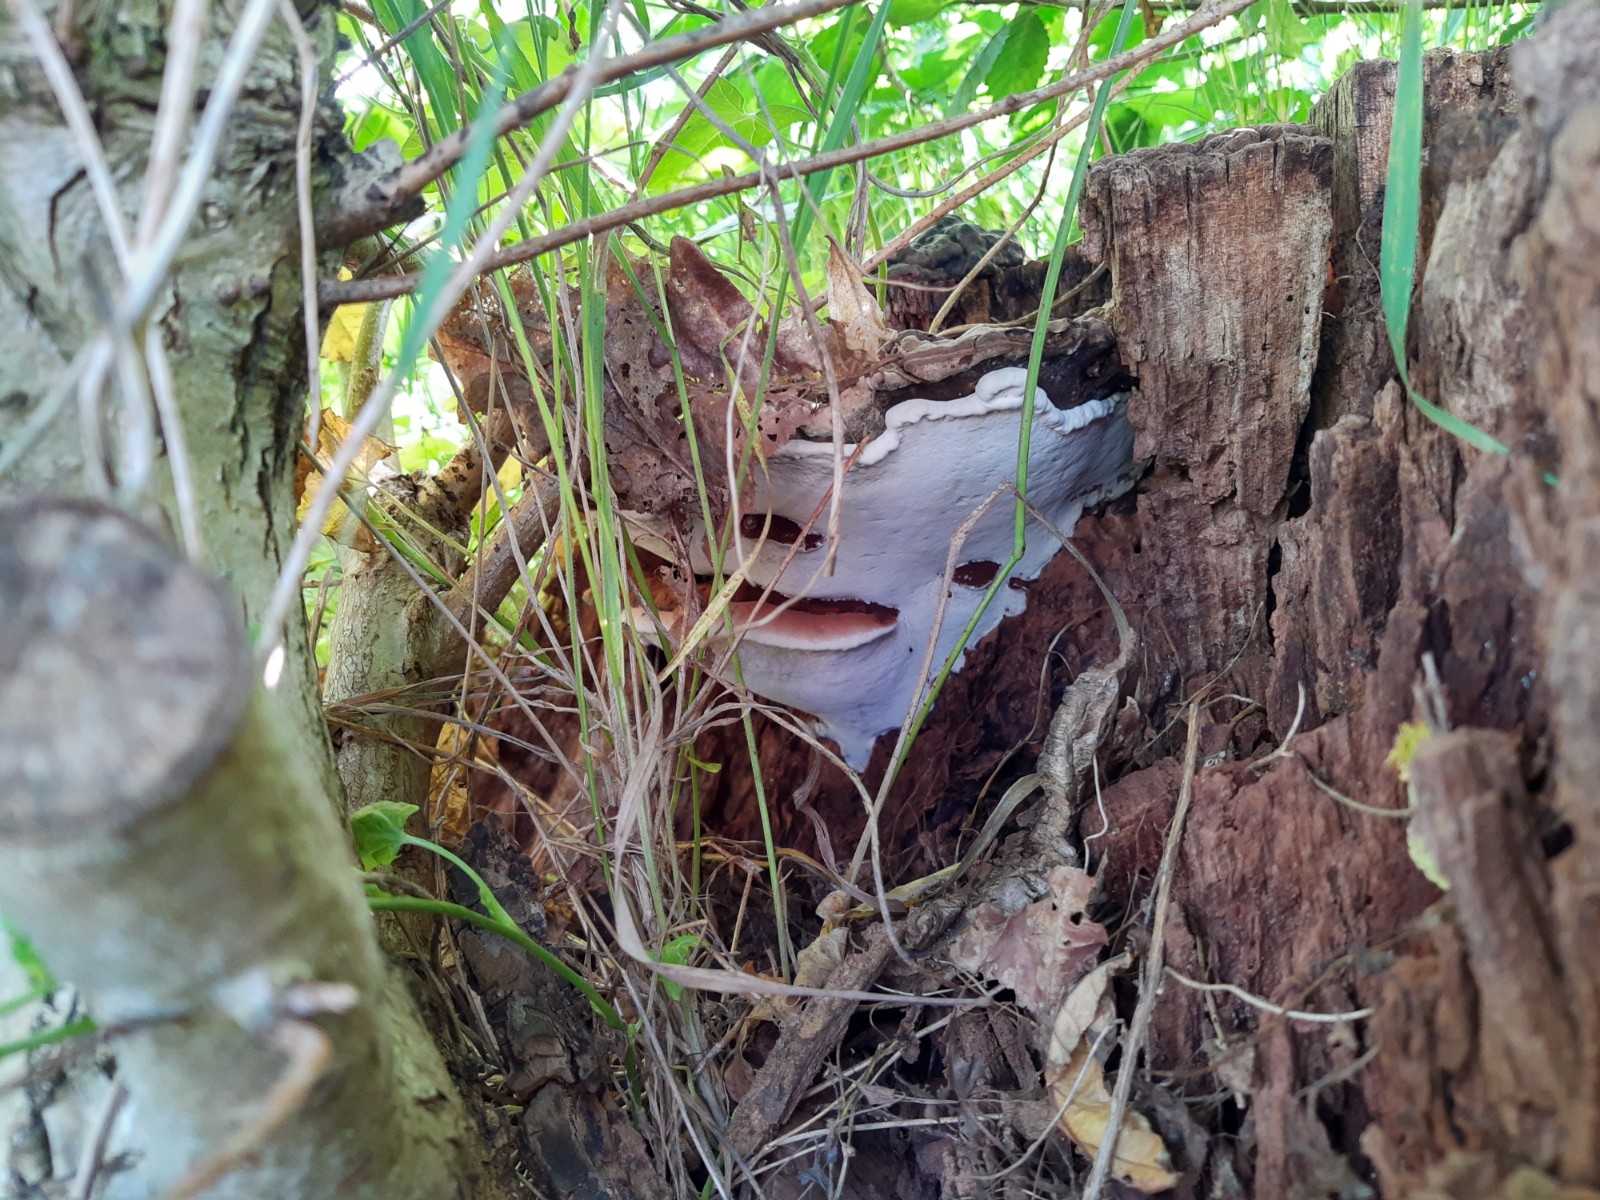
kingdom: Fungi
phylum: Basidiomycota
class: Agaricomycetes
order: Polyporales
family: Polyporaceae
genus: Ganoderma
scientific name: Ganoderma applanatum
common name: flad lakporesvamp
